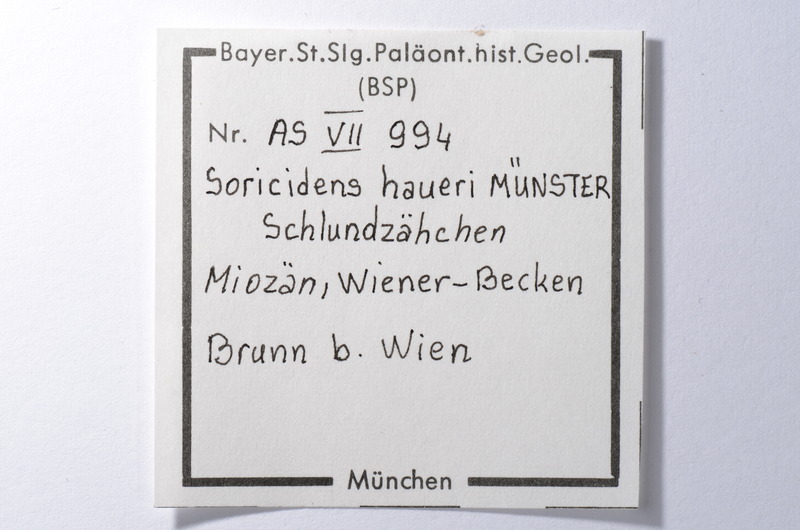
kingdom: Animalia
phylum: Chordata
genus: Soricidens
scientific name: Soricidens
